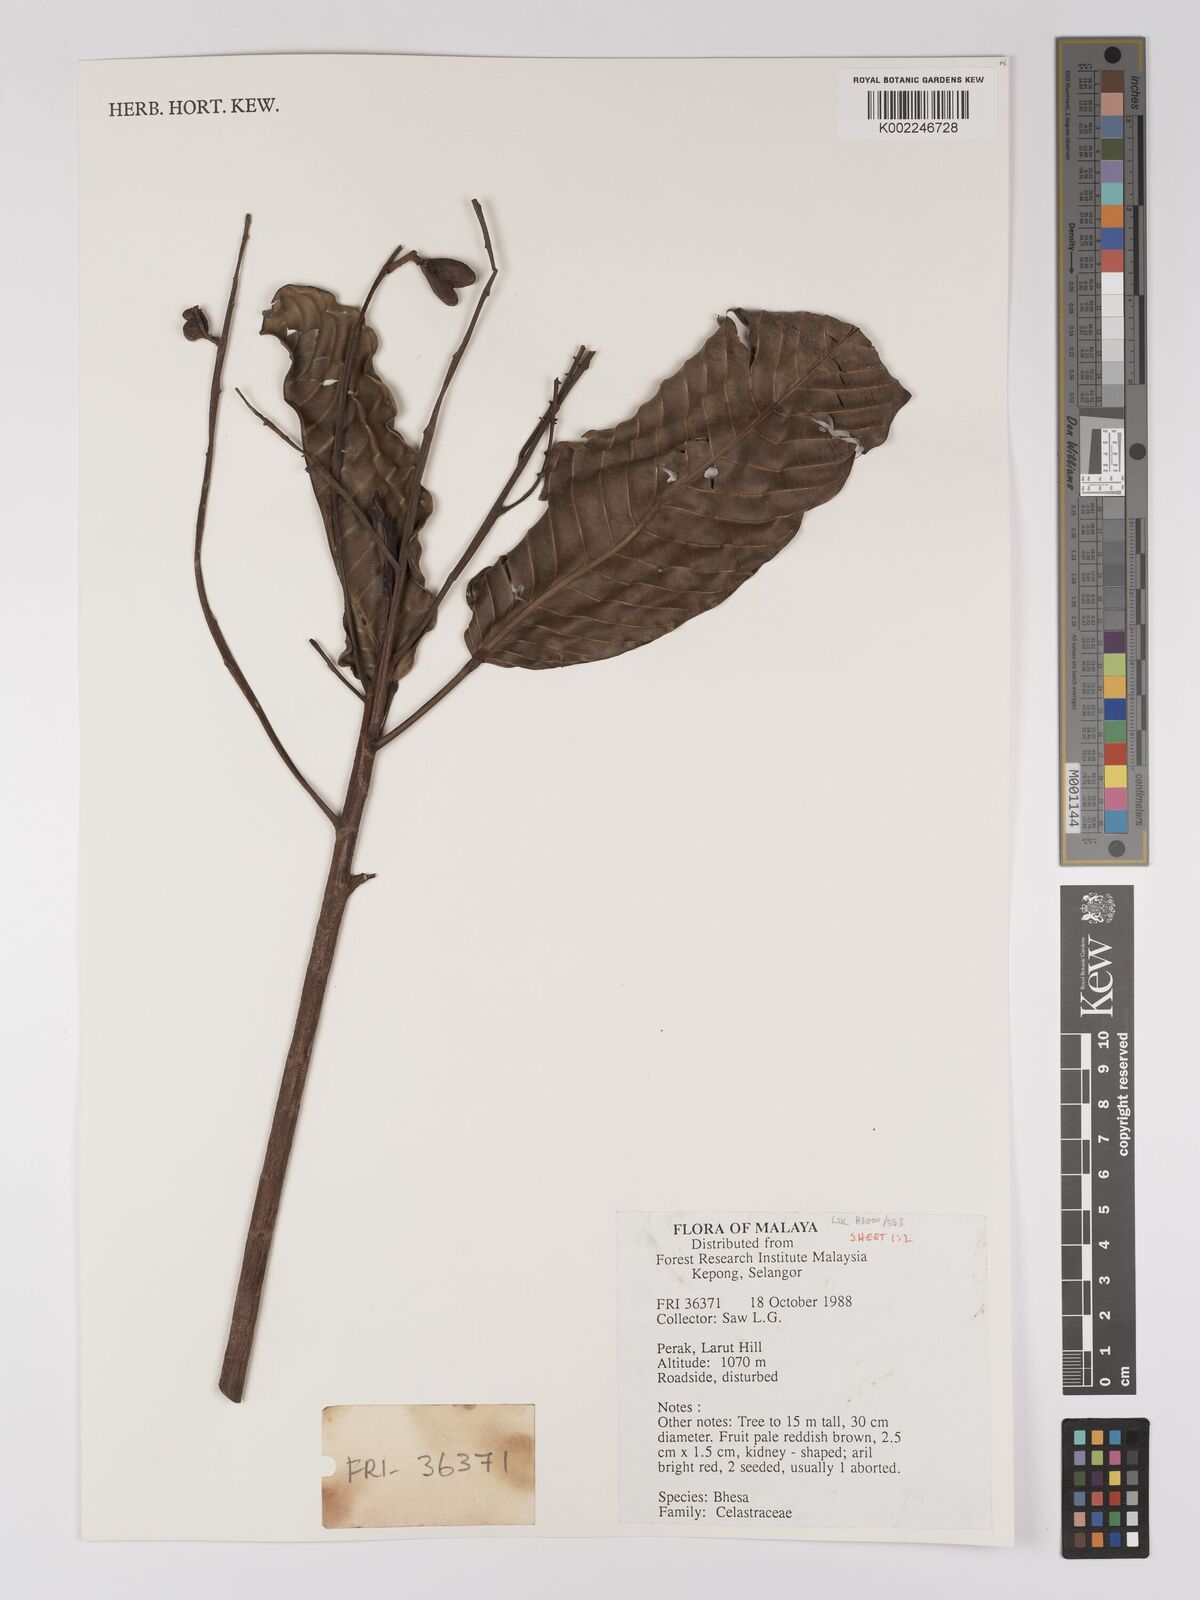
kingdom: Plantae
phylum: Tracheophyta
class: Magnoliopsida
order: Malpighiales
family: Centroplacaceae
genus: Bhesa
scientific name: Bhesa
